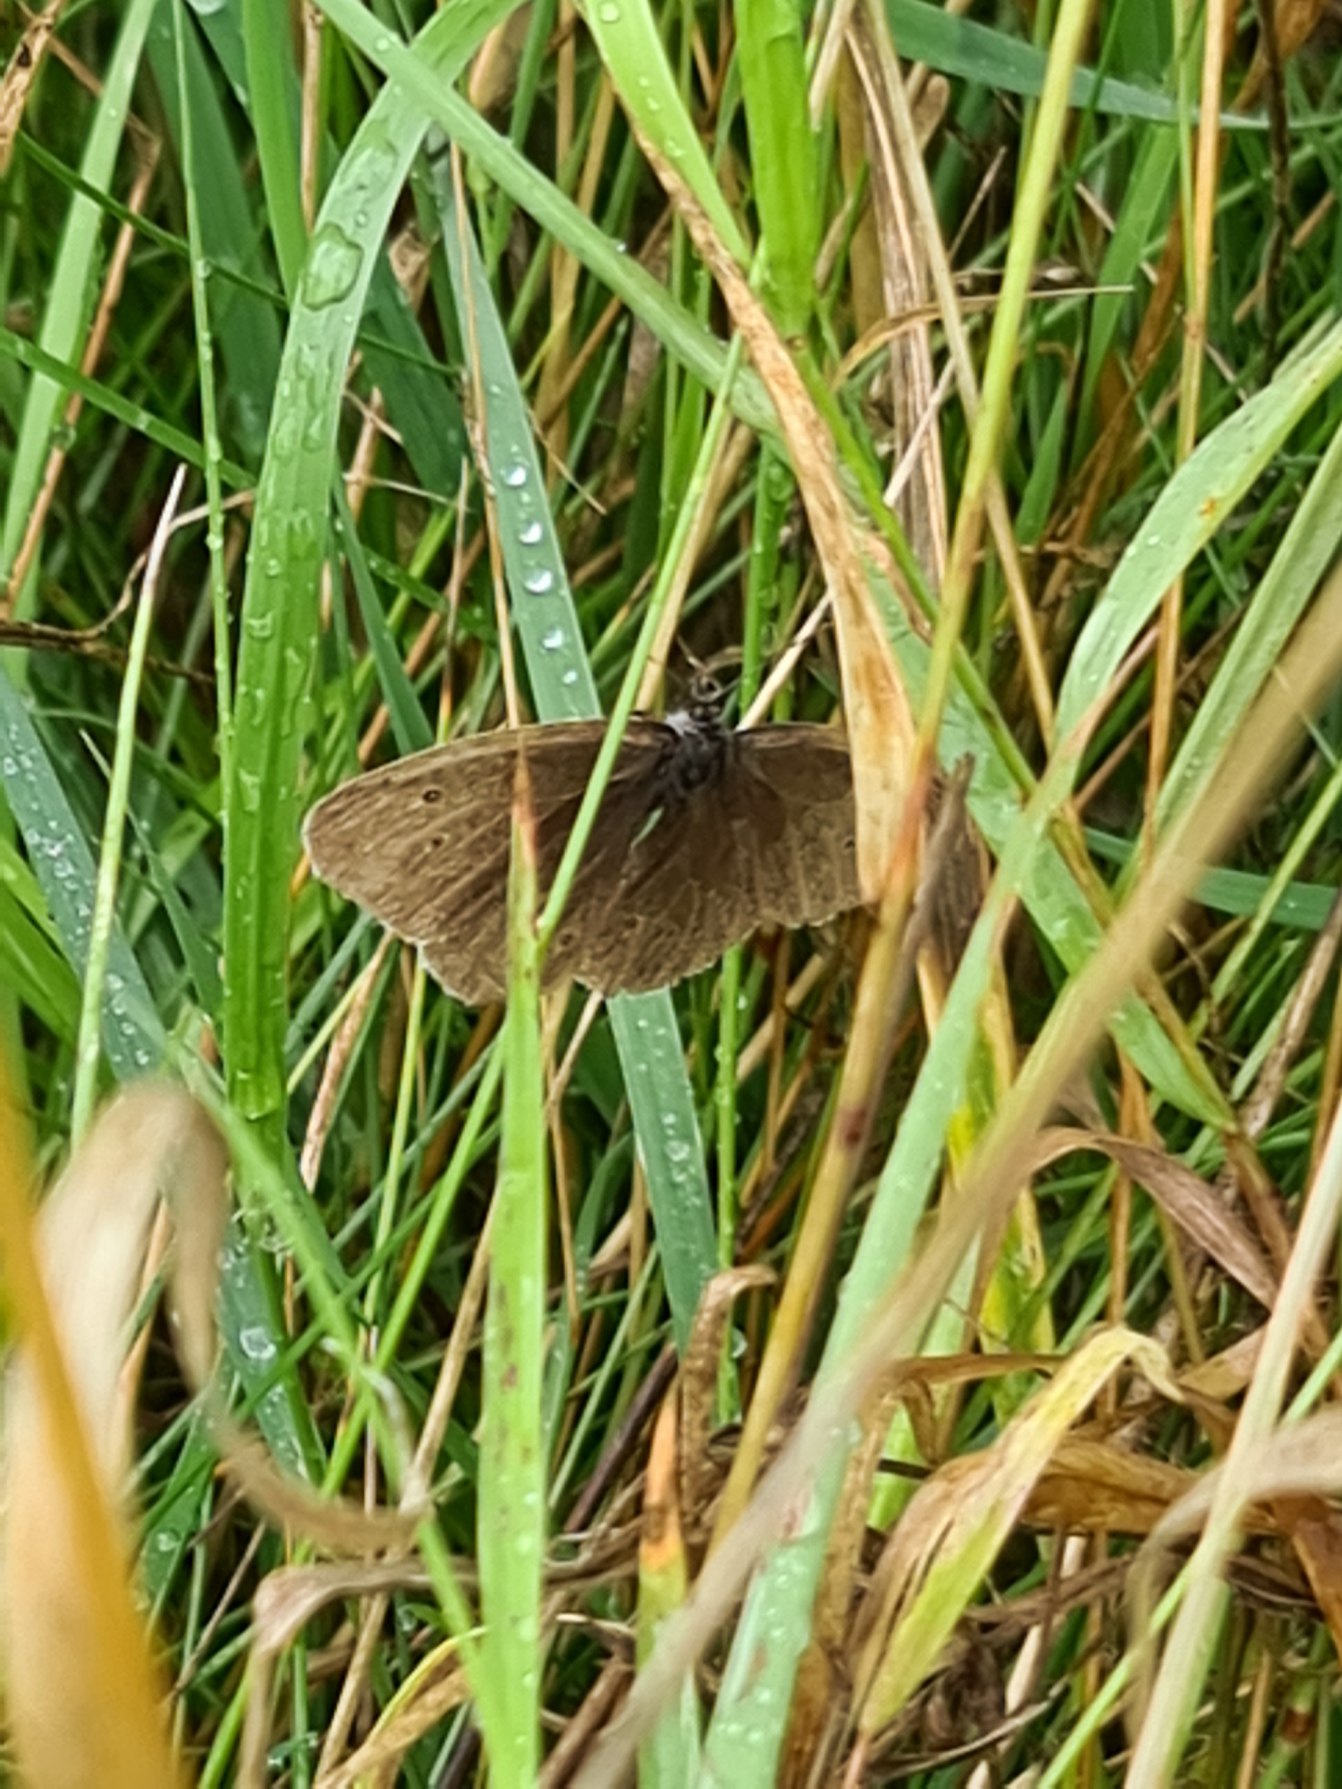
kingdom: Animalia
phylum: Arthropoda
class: Insecta
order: Lepidoptera
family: Nymphalidae
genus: Aphantopus
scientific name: Aphantopus hyperantus
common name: Engrandøje
